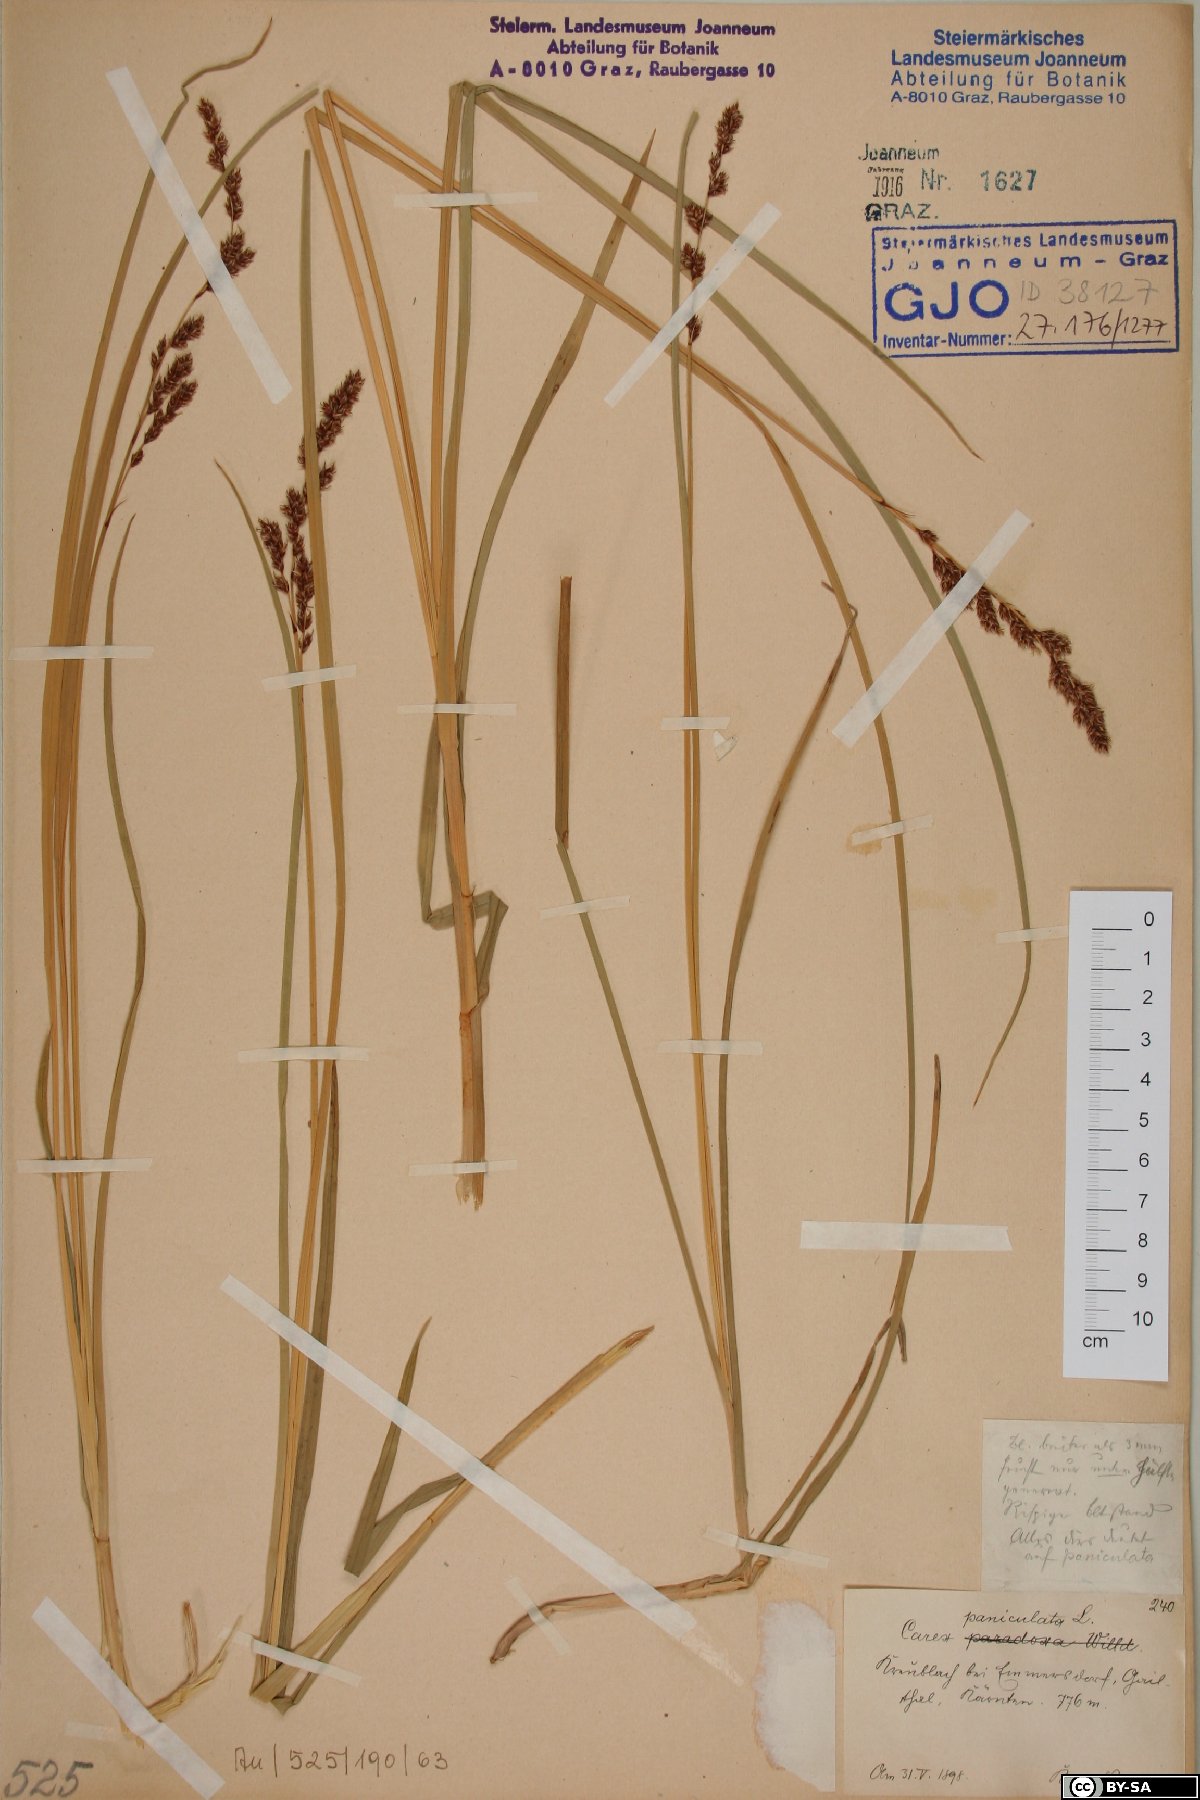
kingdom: Plantae
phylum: Tracheophyta
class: Liliopsida
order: Poales
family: Cyperaceae
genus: Carex
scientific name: Carex paniculata
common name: Greater tussock-sedge
